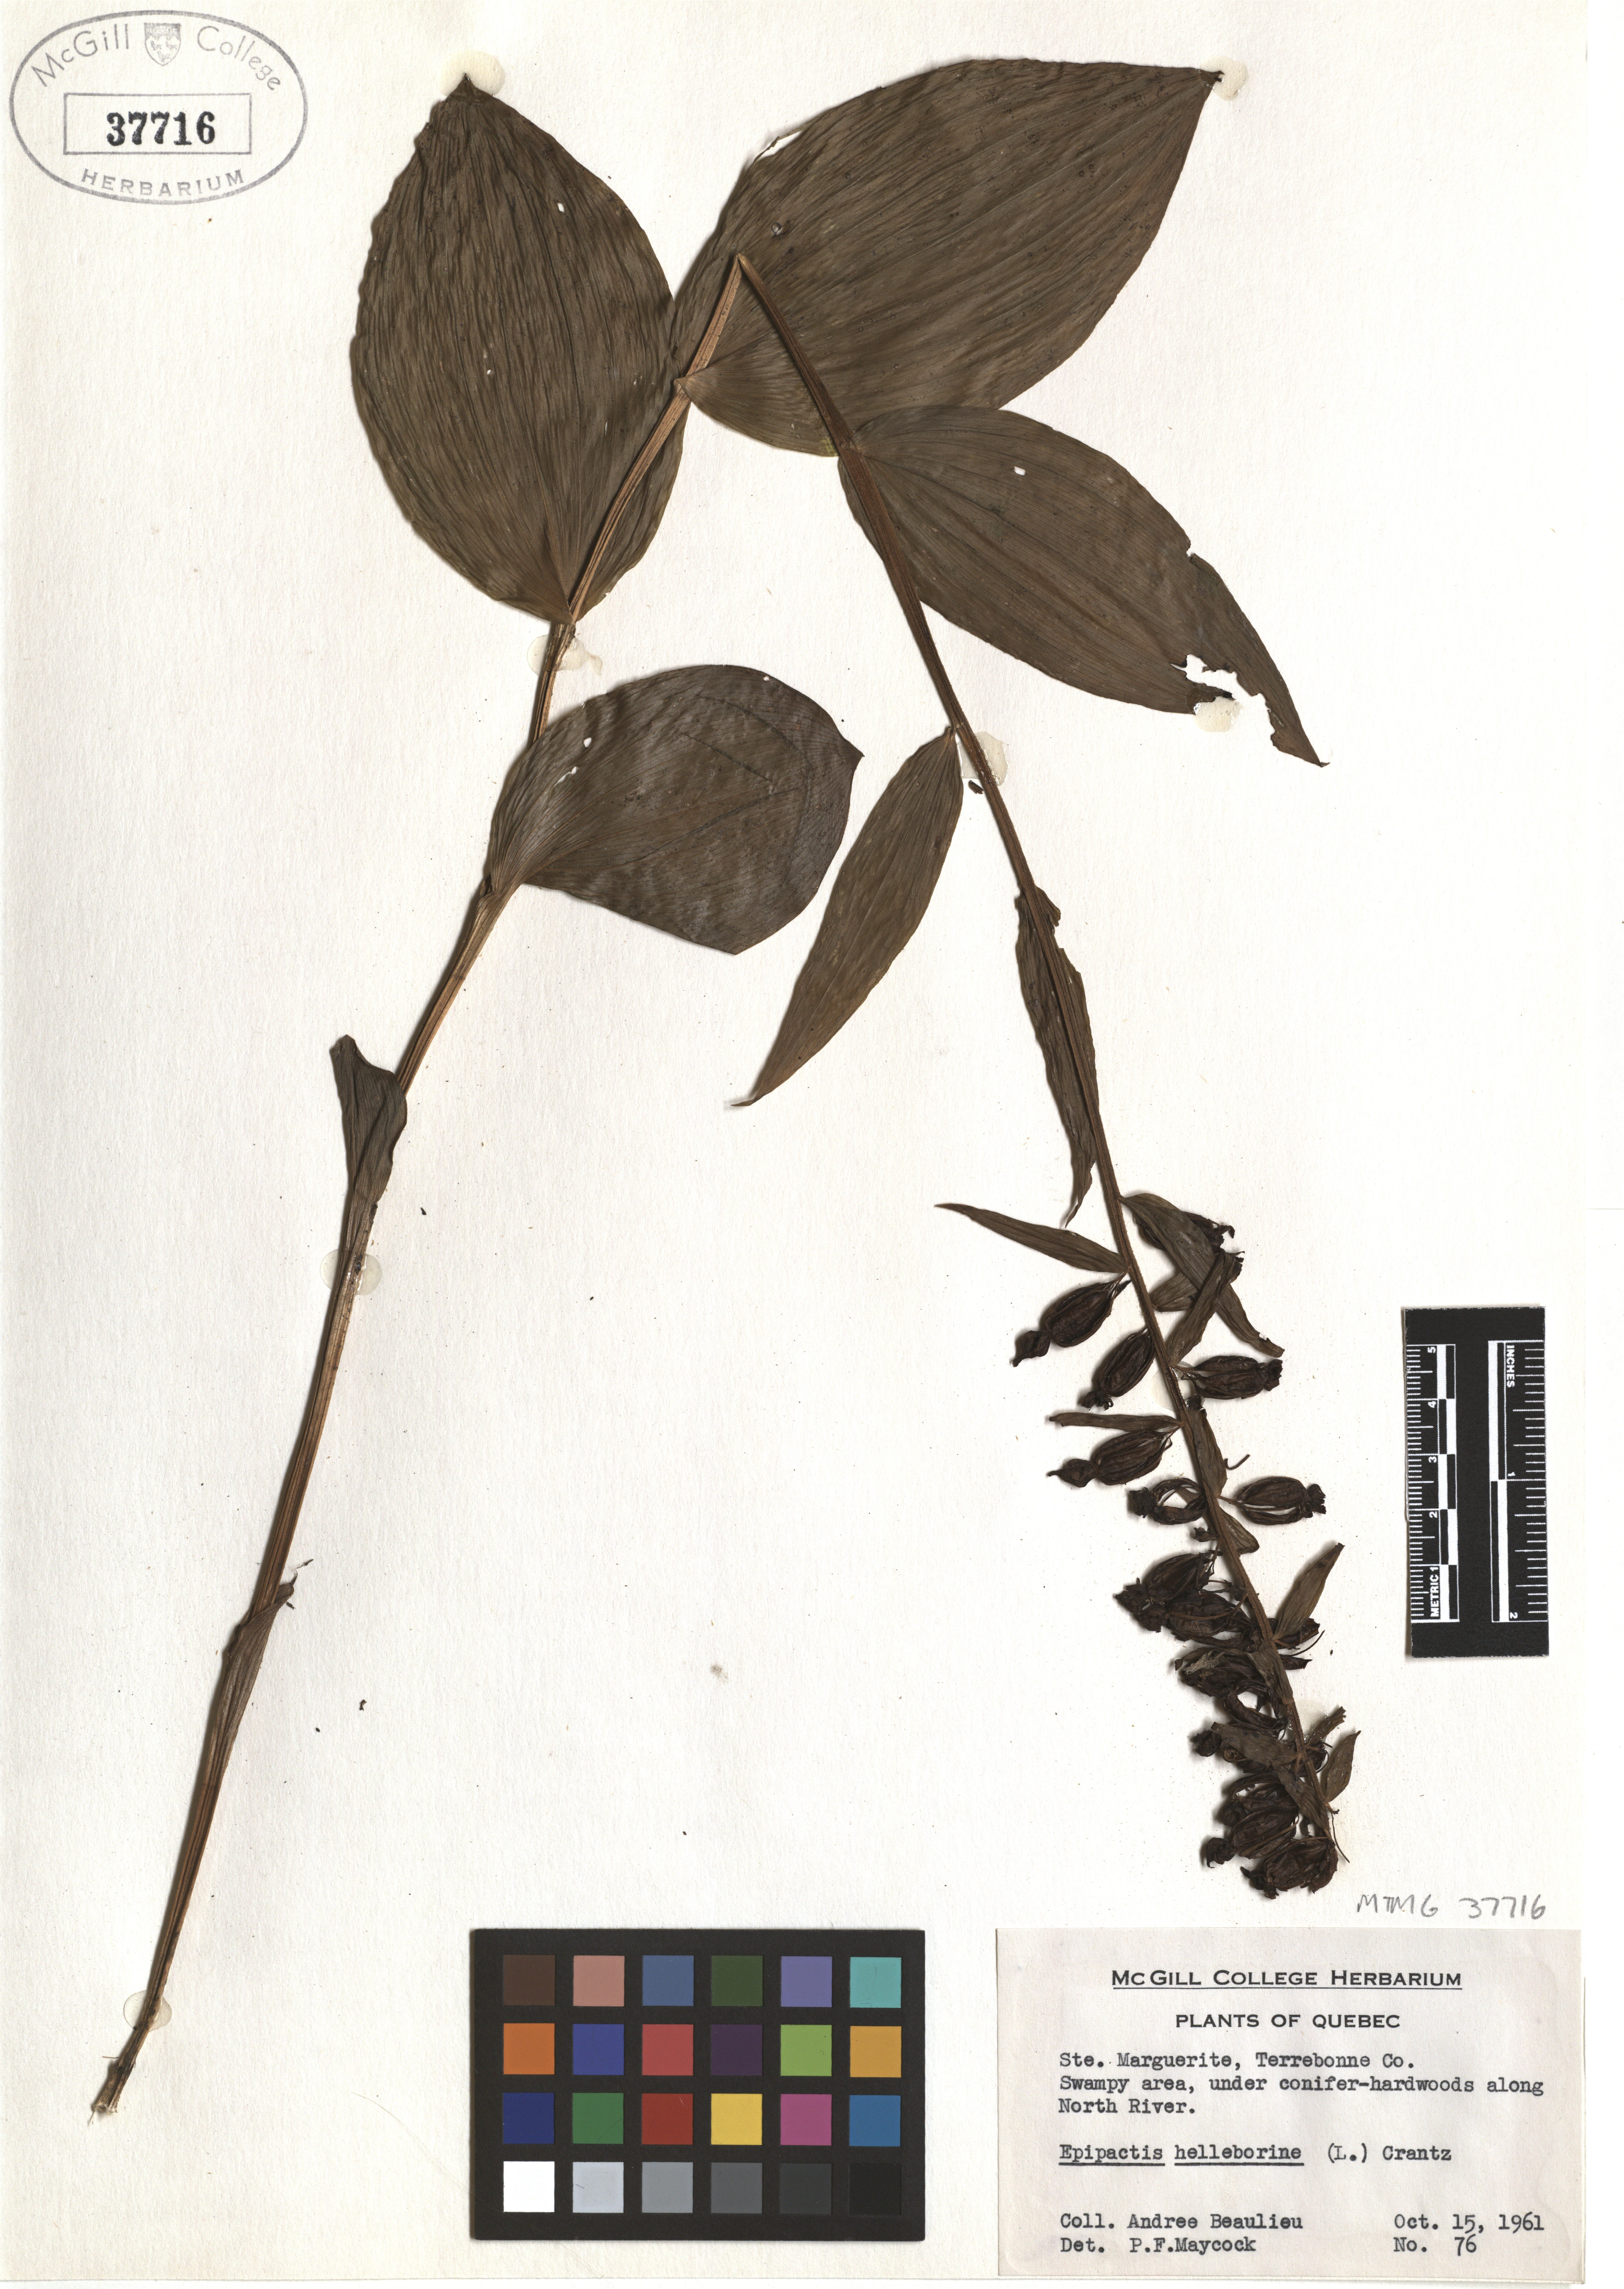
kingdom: Plantae
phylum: Tracheophyta
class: Liliopsida
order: Asparagales
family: Orchidaceae
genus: Epipactis
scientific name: Epipactis helleborine
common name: Broad-leaved helleborine
